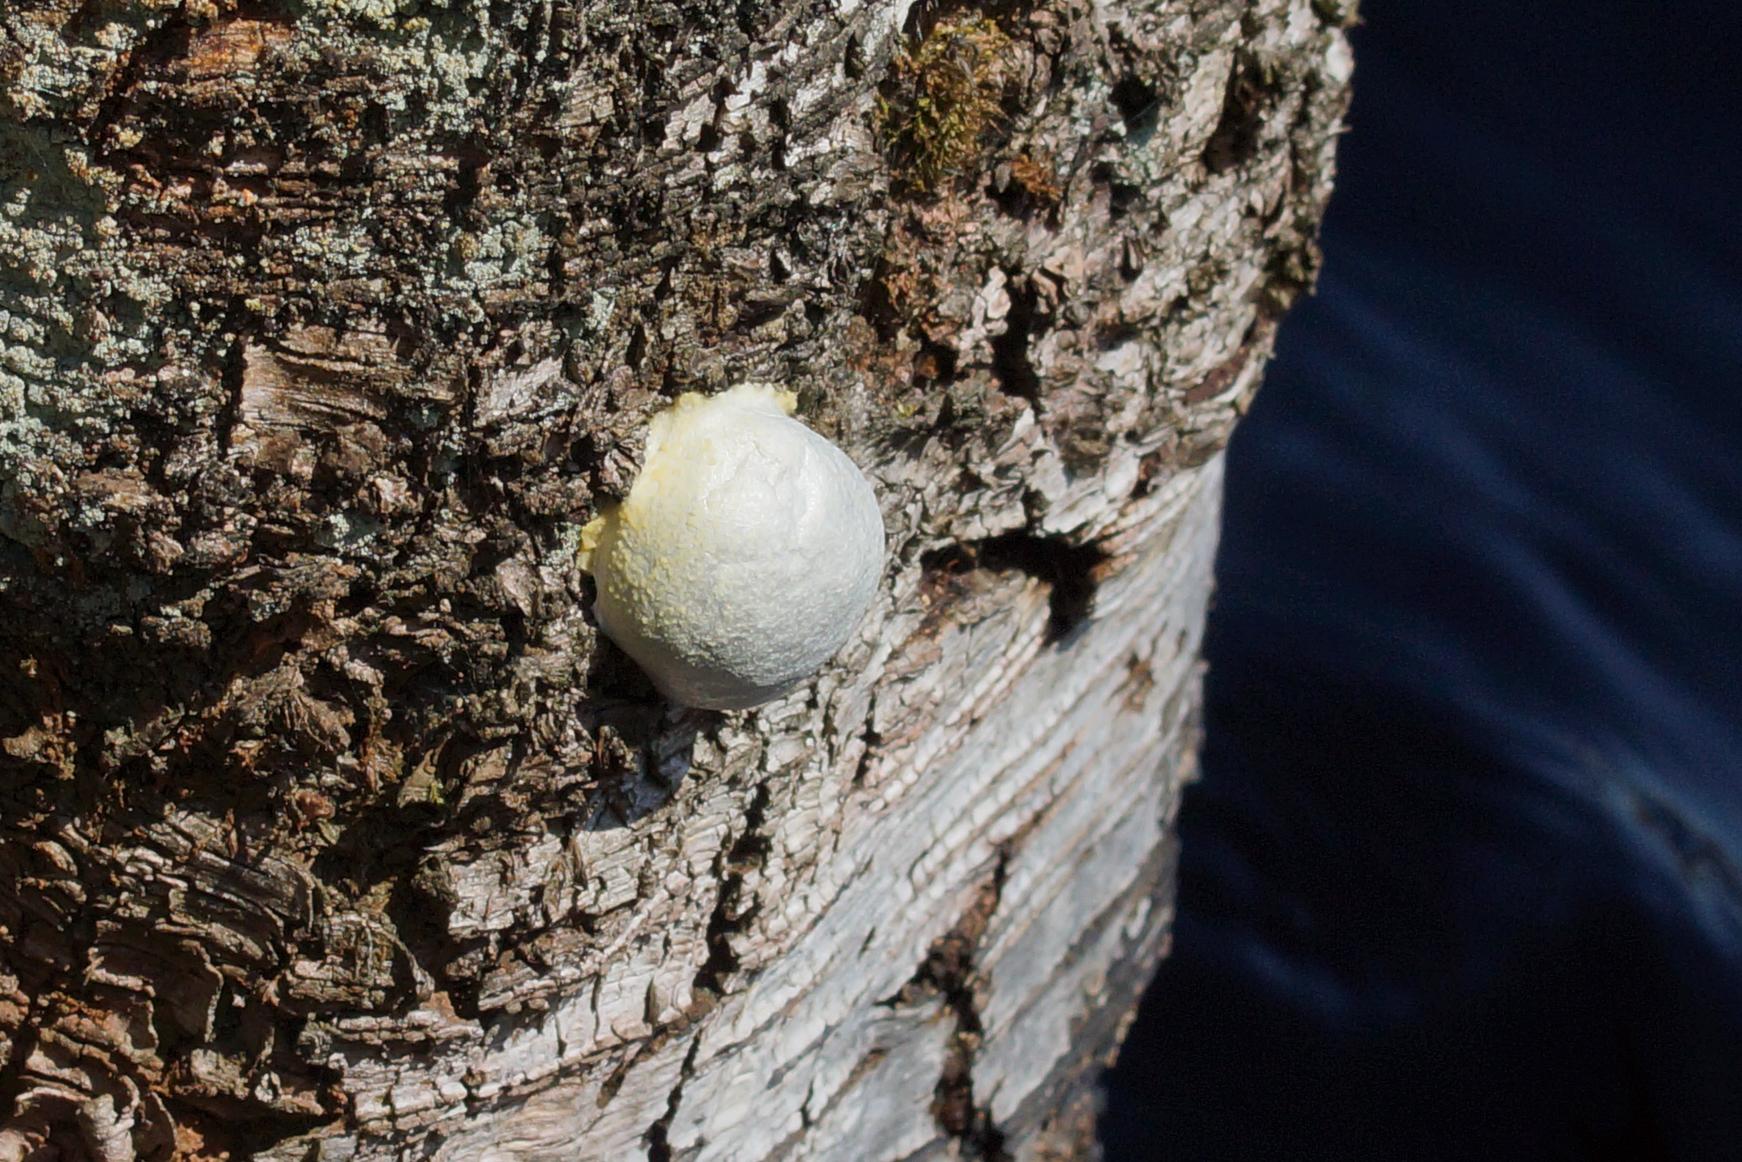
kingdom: Protozoa
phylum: Mycetozoa
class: Myxomycetes
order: Cribrariales
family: Tubiferaceae
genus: Reticularia
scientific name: Reticularia lycoperdon
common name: Skinnende støvpude
